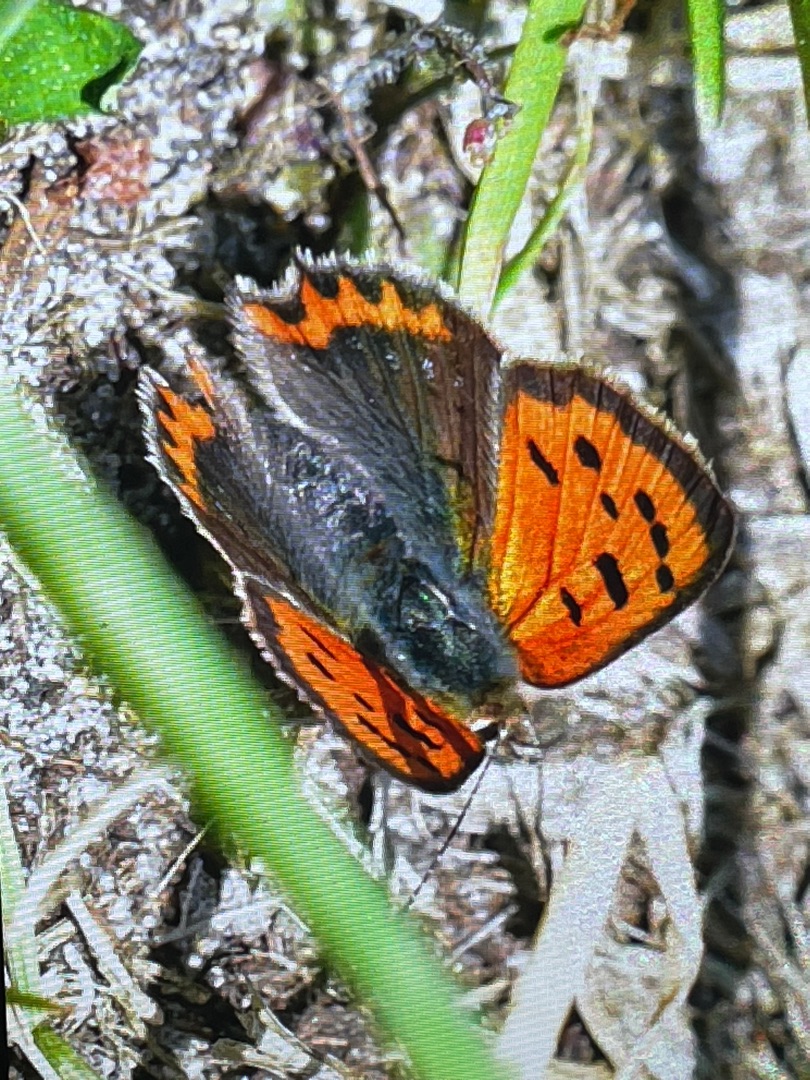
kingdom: Animalia
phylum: Arthropoda
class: Insecta
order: Lepidoptera
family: Lycaenidae
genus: Lycaena
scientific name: Lycaena phlaeas
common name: Lille ildfugl
